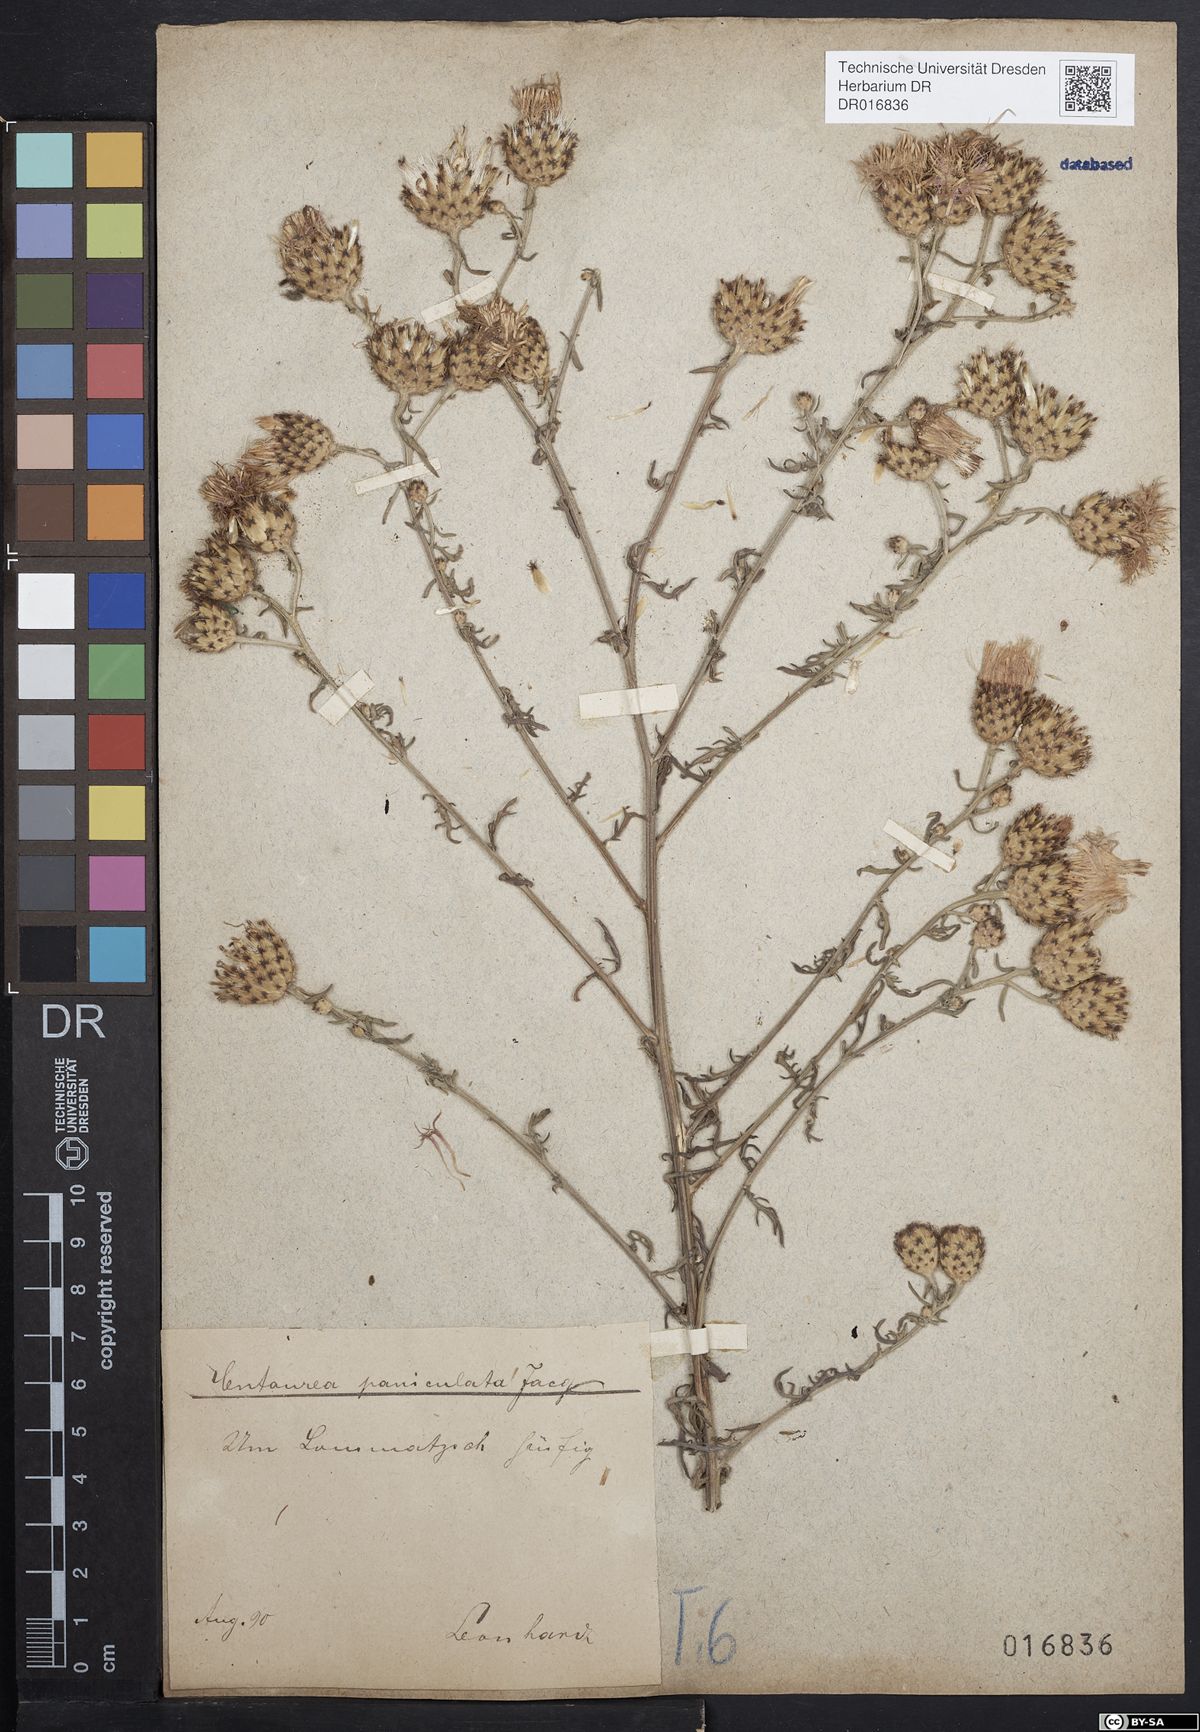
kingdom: Plantae
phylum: Tracheophyta
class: Magnoliopsida
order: Asterales
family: Asteraceae
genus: Centaurea
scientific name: Centaurea stoebe
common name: Spotted knapweed
